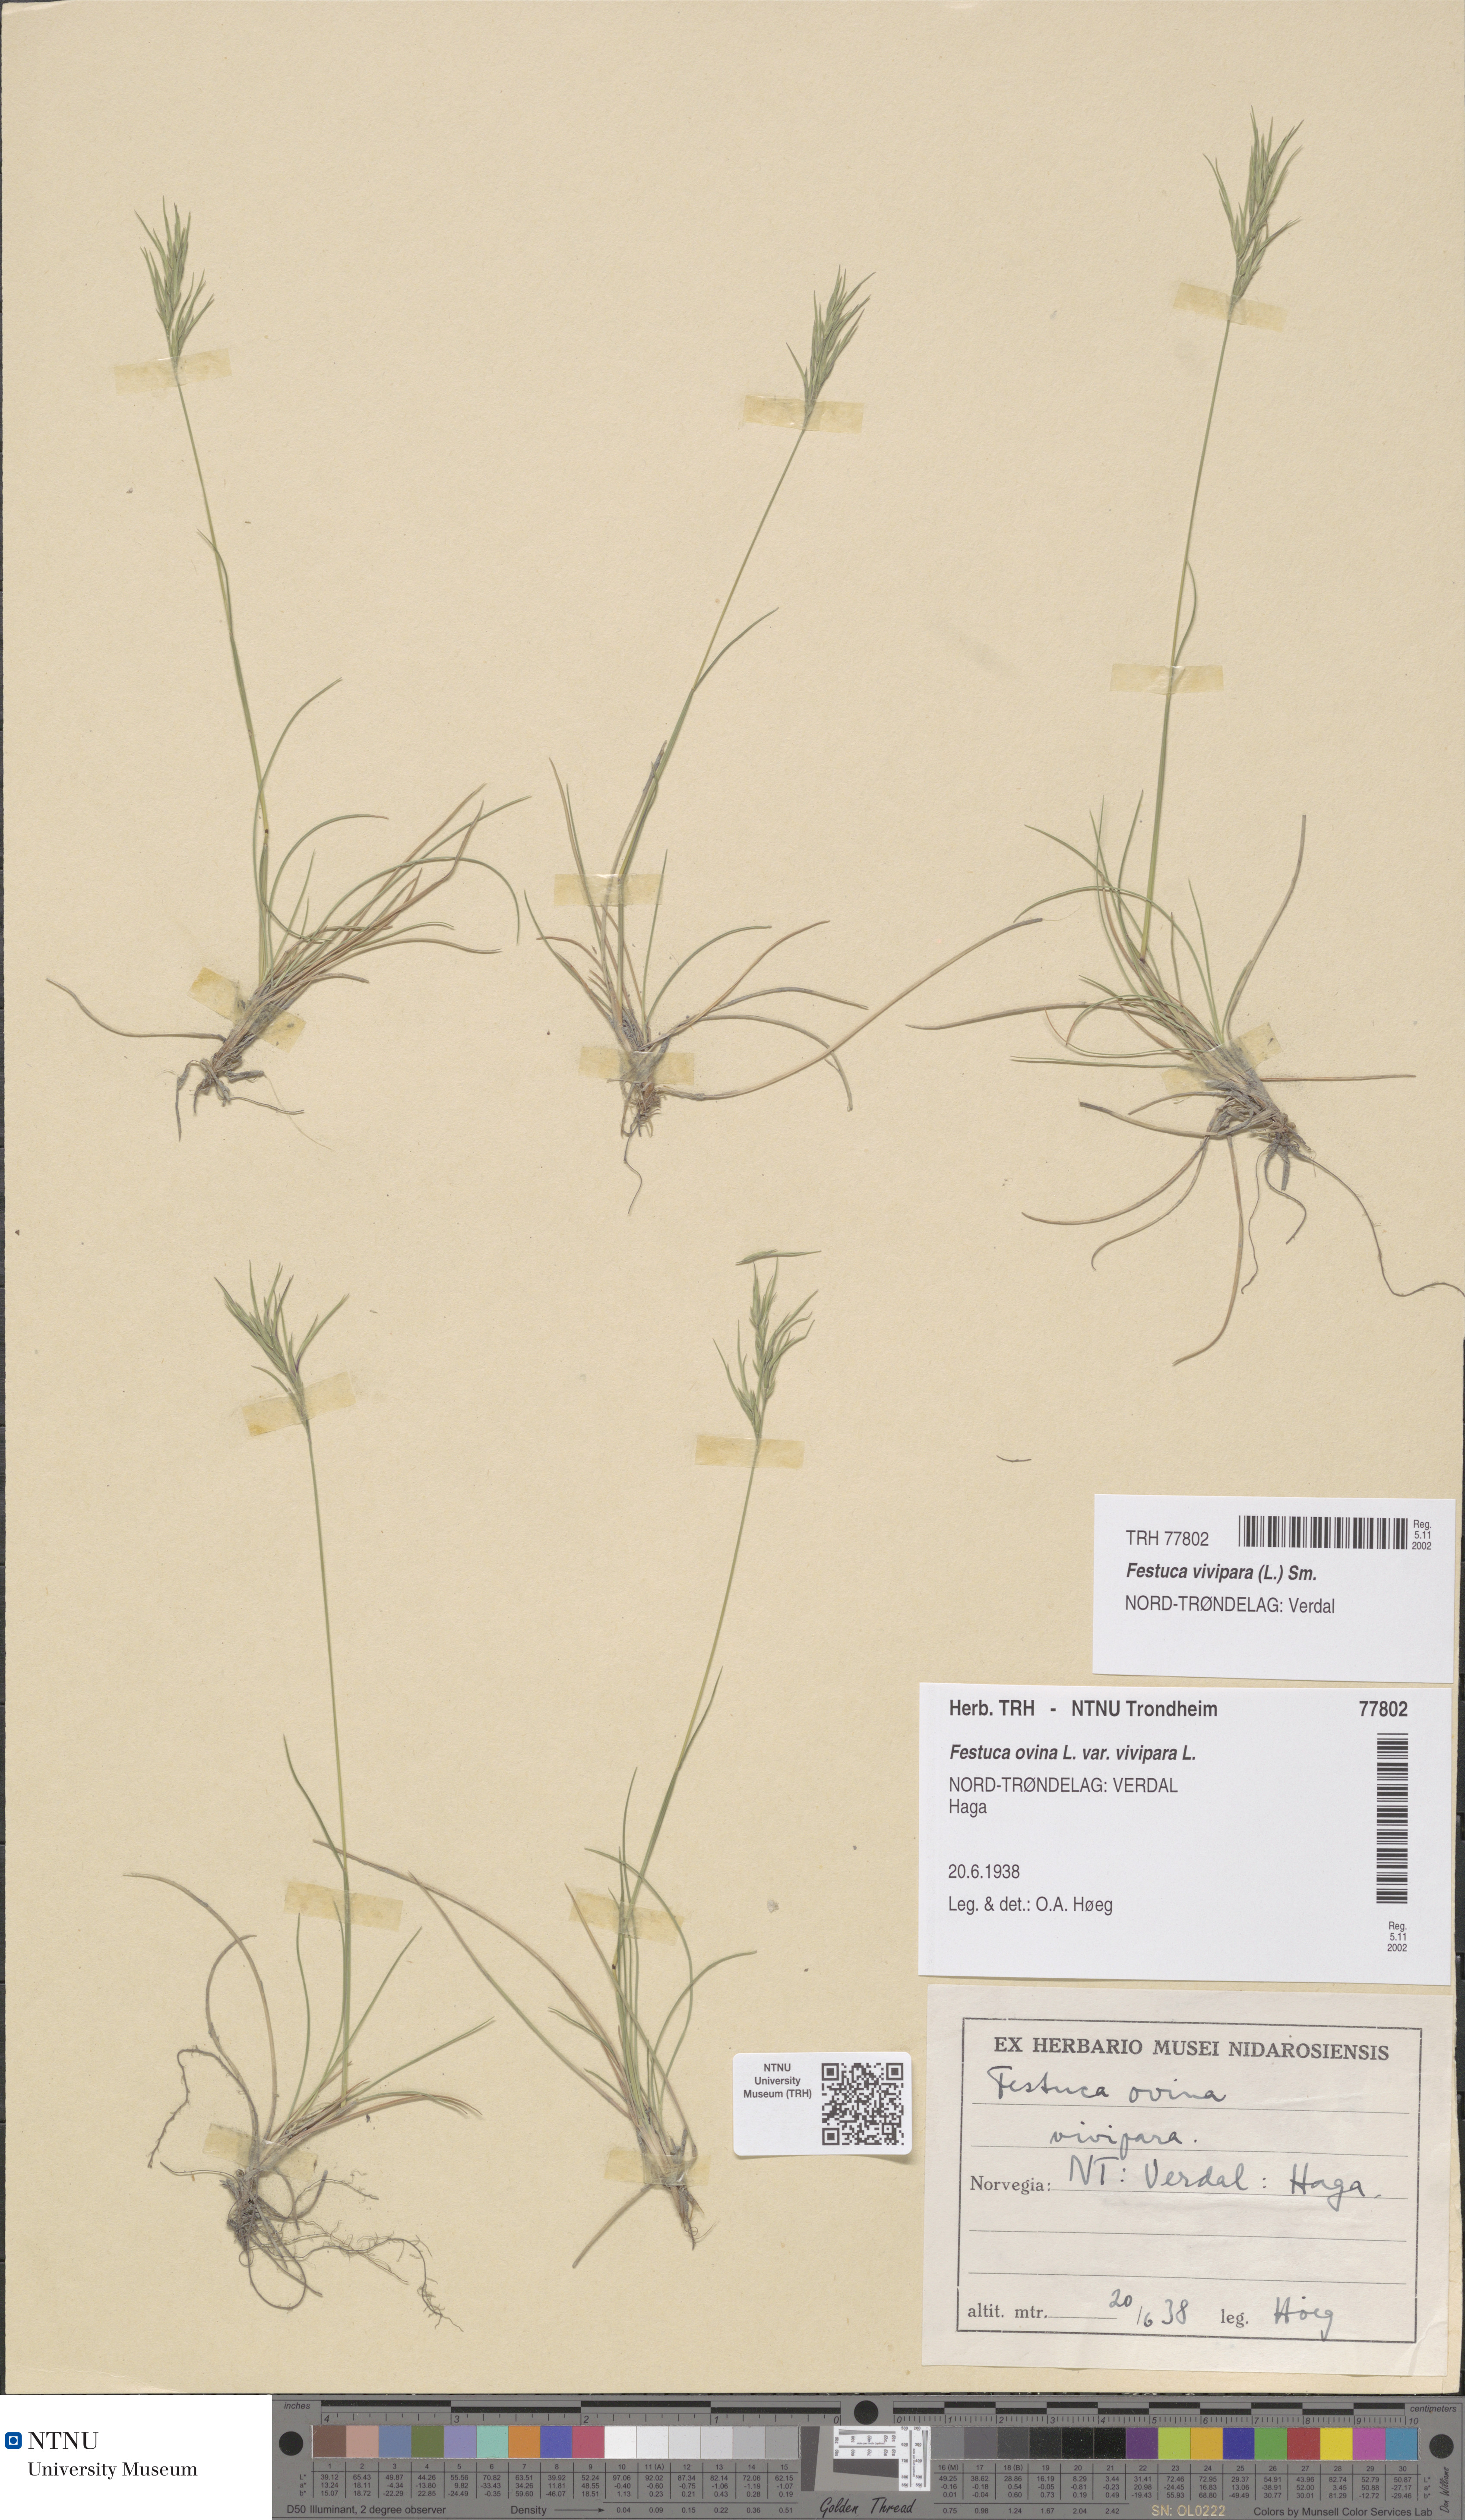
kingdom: Plantae
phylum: Tracheophyta
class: Liliopsida
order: Poales
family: Poaceae
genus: Festuca
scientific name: Festuca vivipara
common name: Viviparous sheep's-fescue
